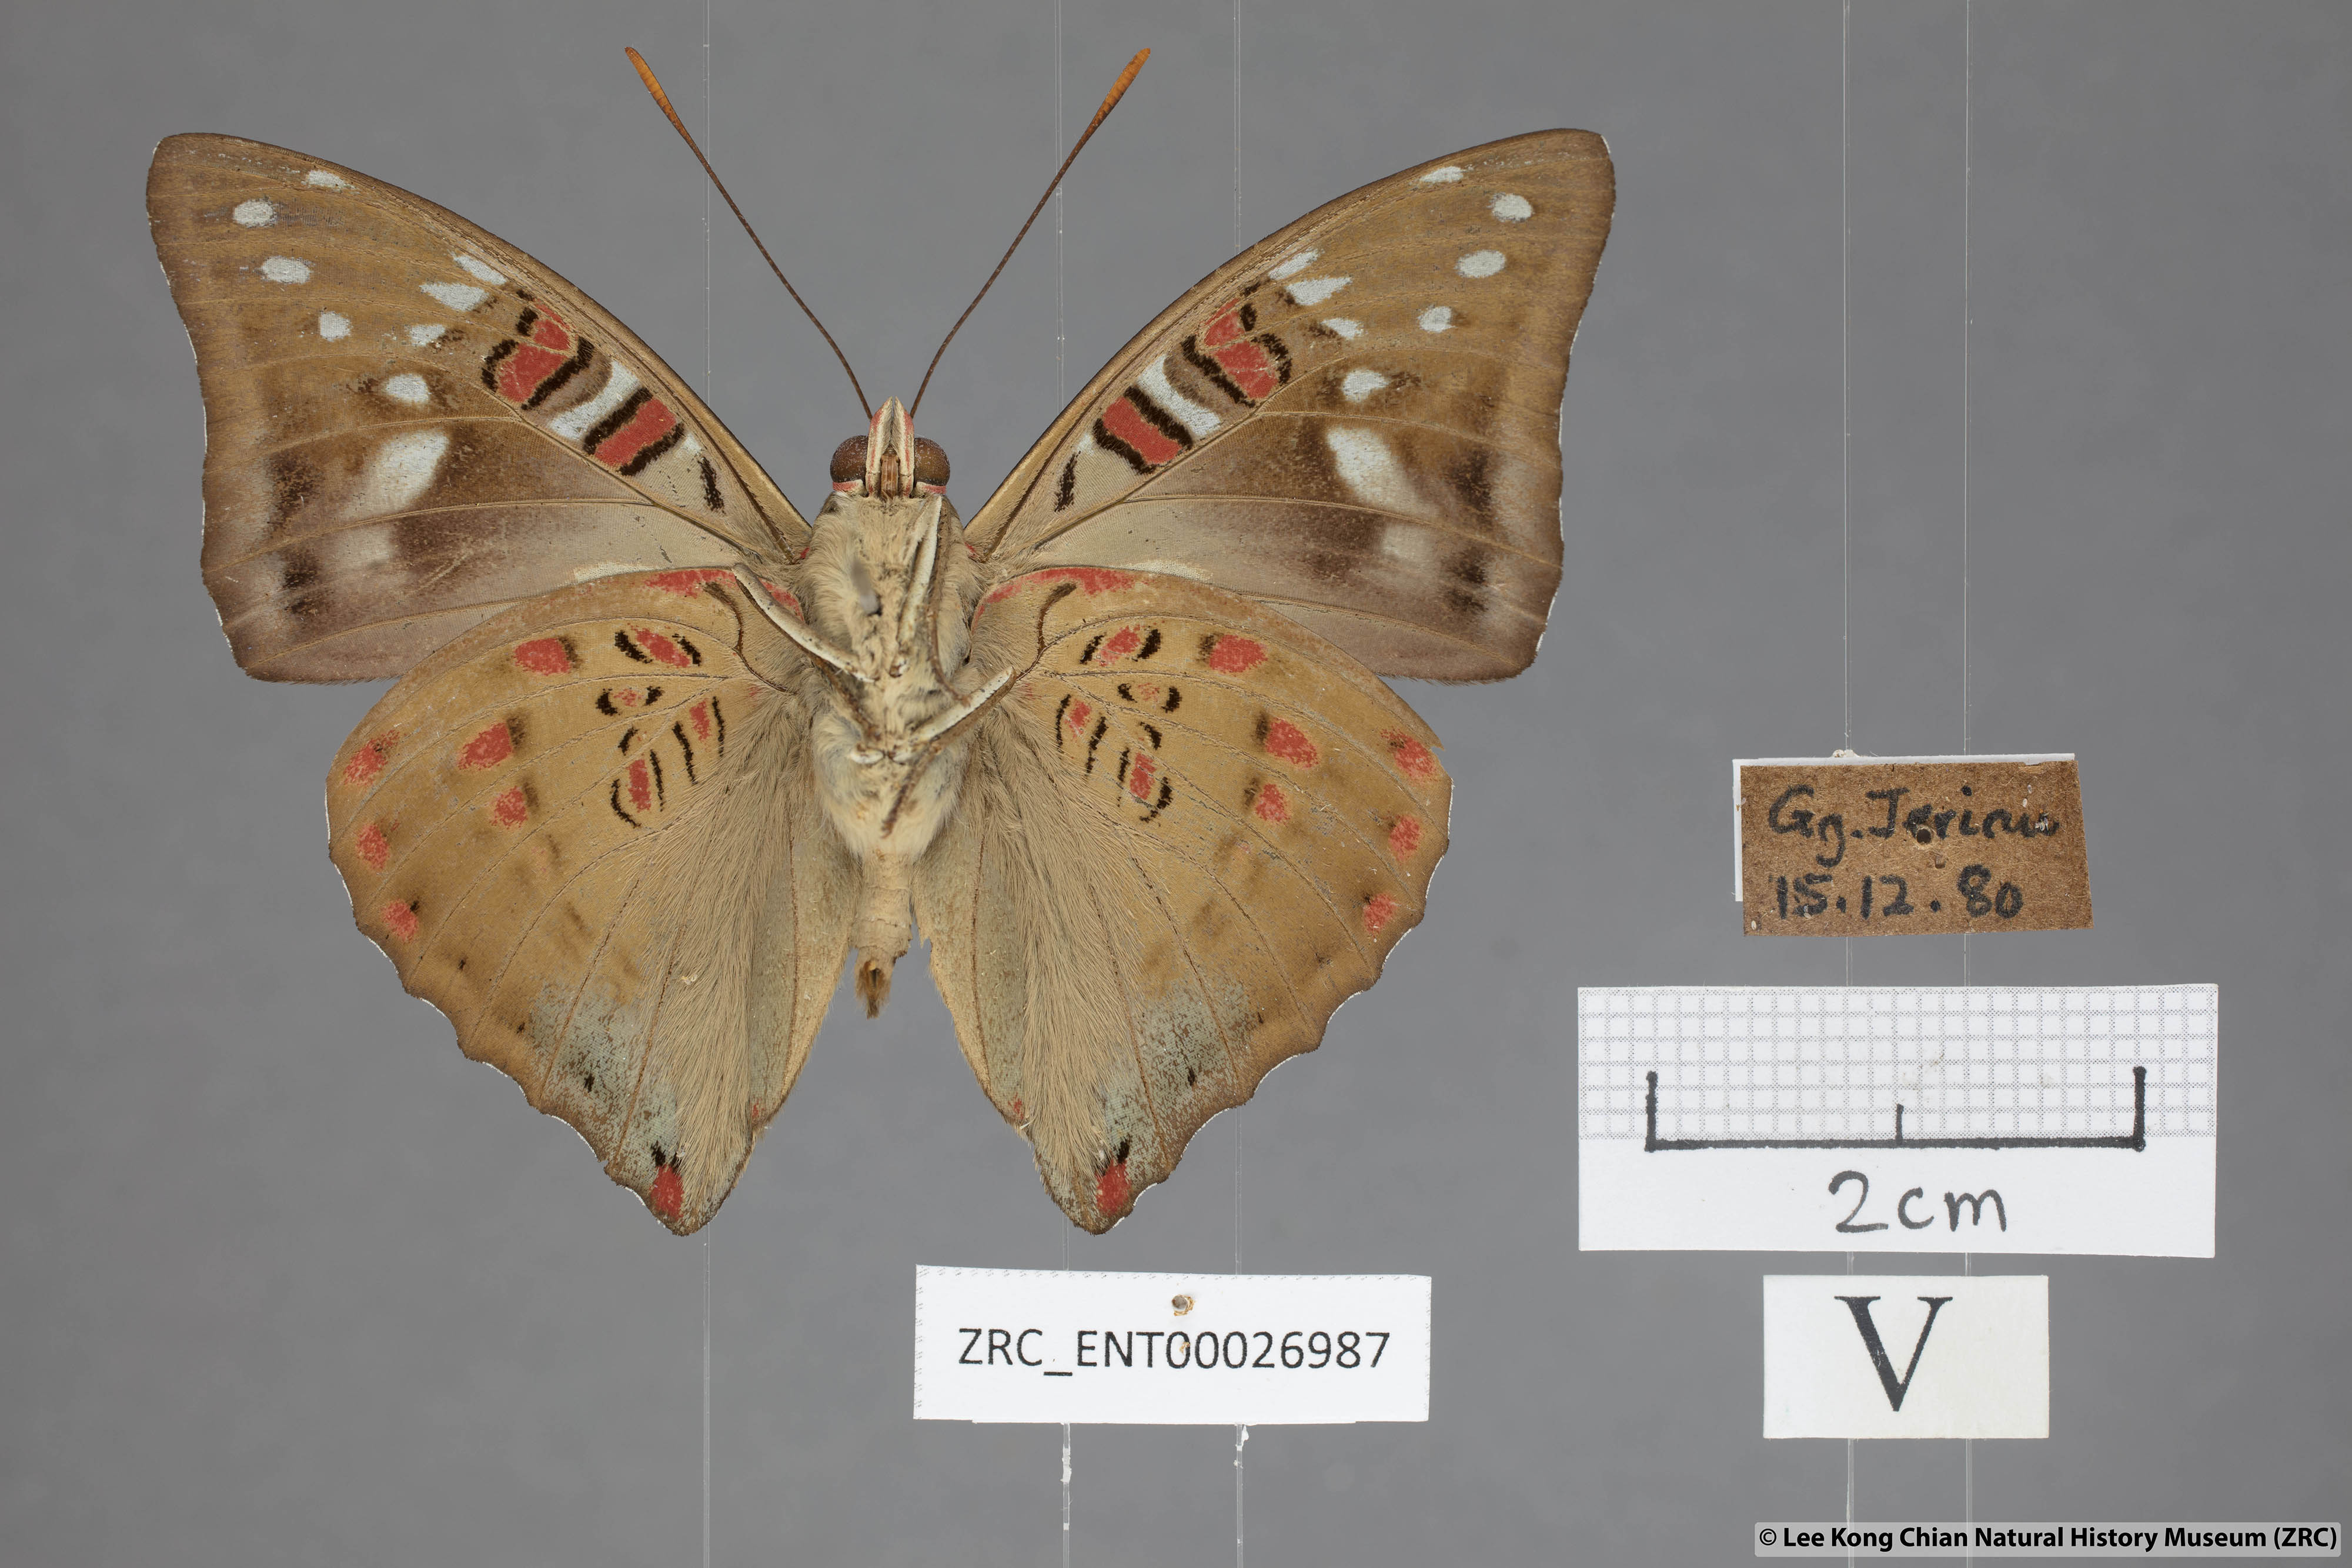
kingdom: Animalia
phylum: Arthropoda
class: Insecta
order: Lepidoptera
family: Nymphalidae
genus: Euthalia
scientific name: Euthalia whiteheadi
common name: Tri-coloured baron
